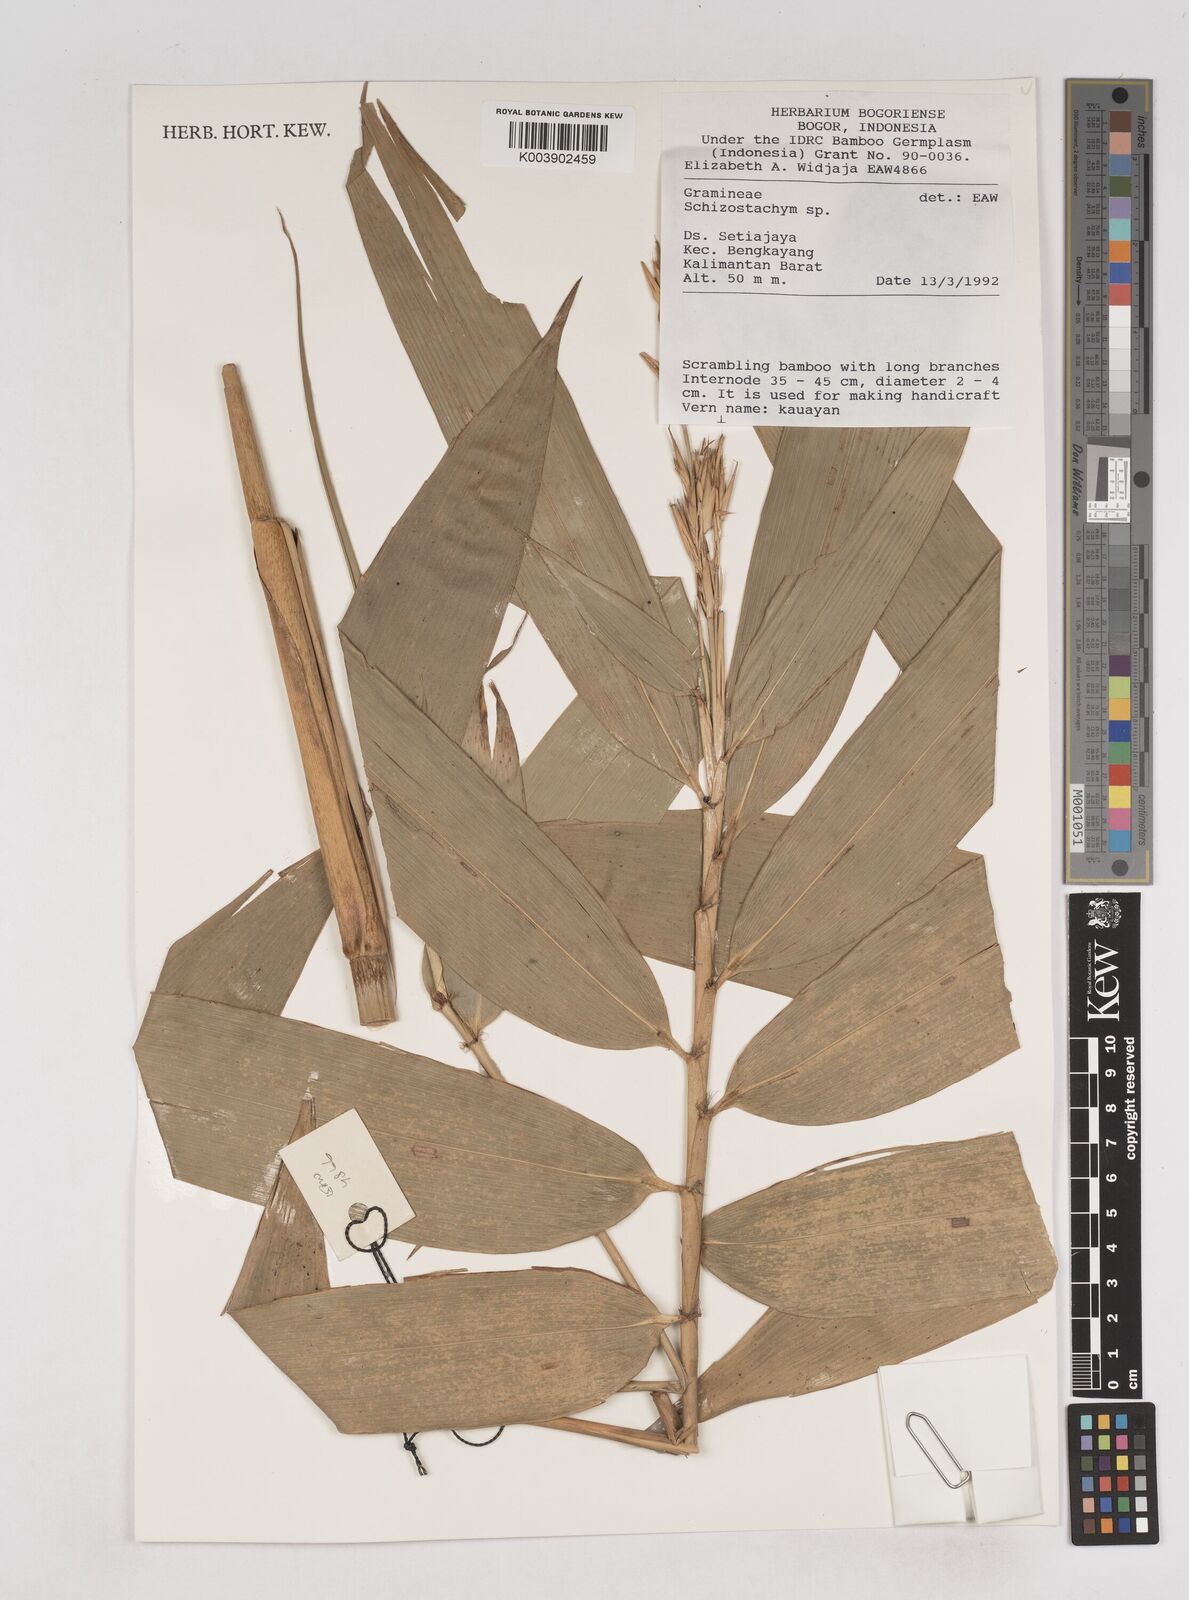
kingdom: Plantae
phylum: Tracheophyta
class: Liliopsida
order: Poales
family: Poaceae
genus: Schizostachyum
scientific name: Schizostachyum
